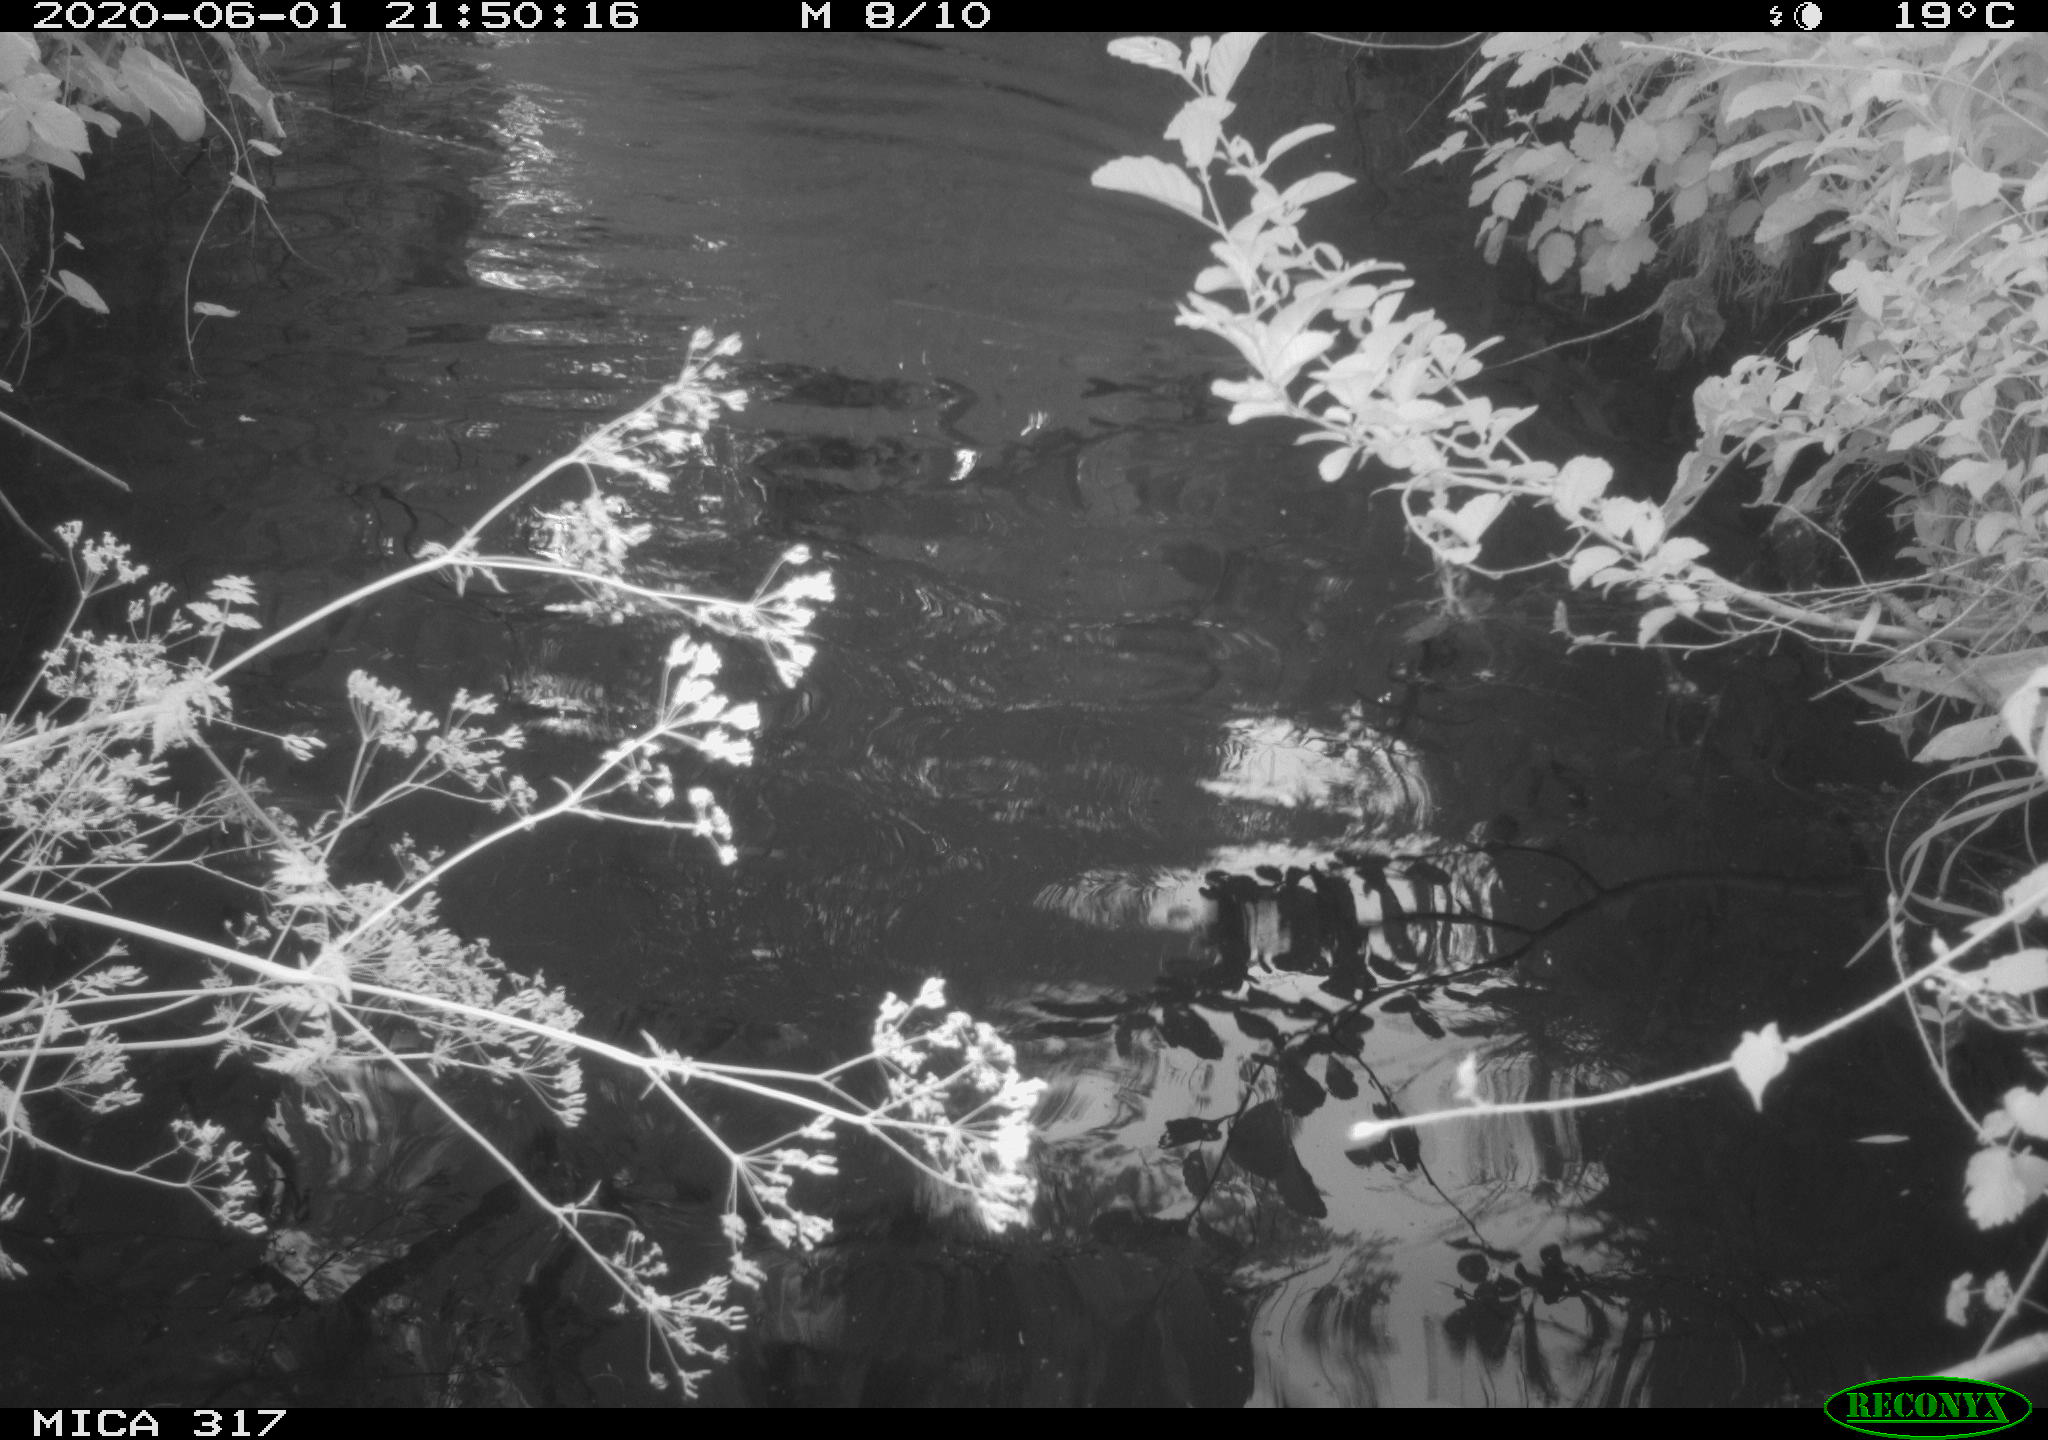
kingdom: Animalia
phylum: Chordata
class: Aves
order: Anseriformes
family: Anatidae
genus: Anas
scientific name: Anas platyrhynchos
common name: Mallard
